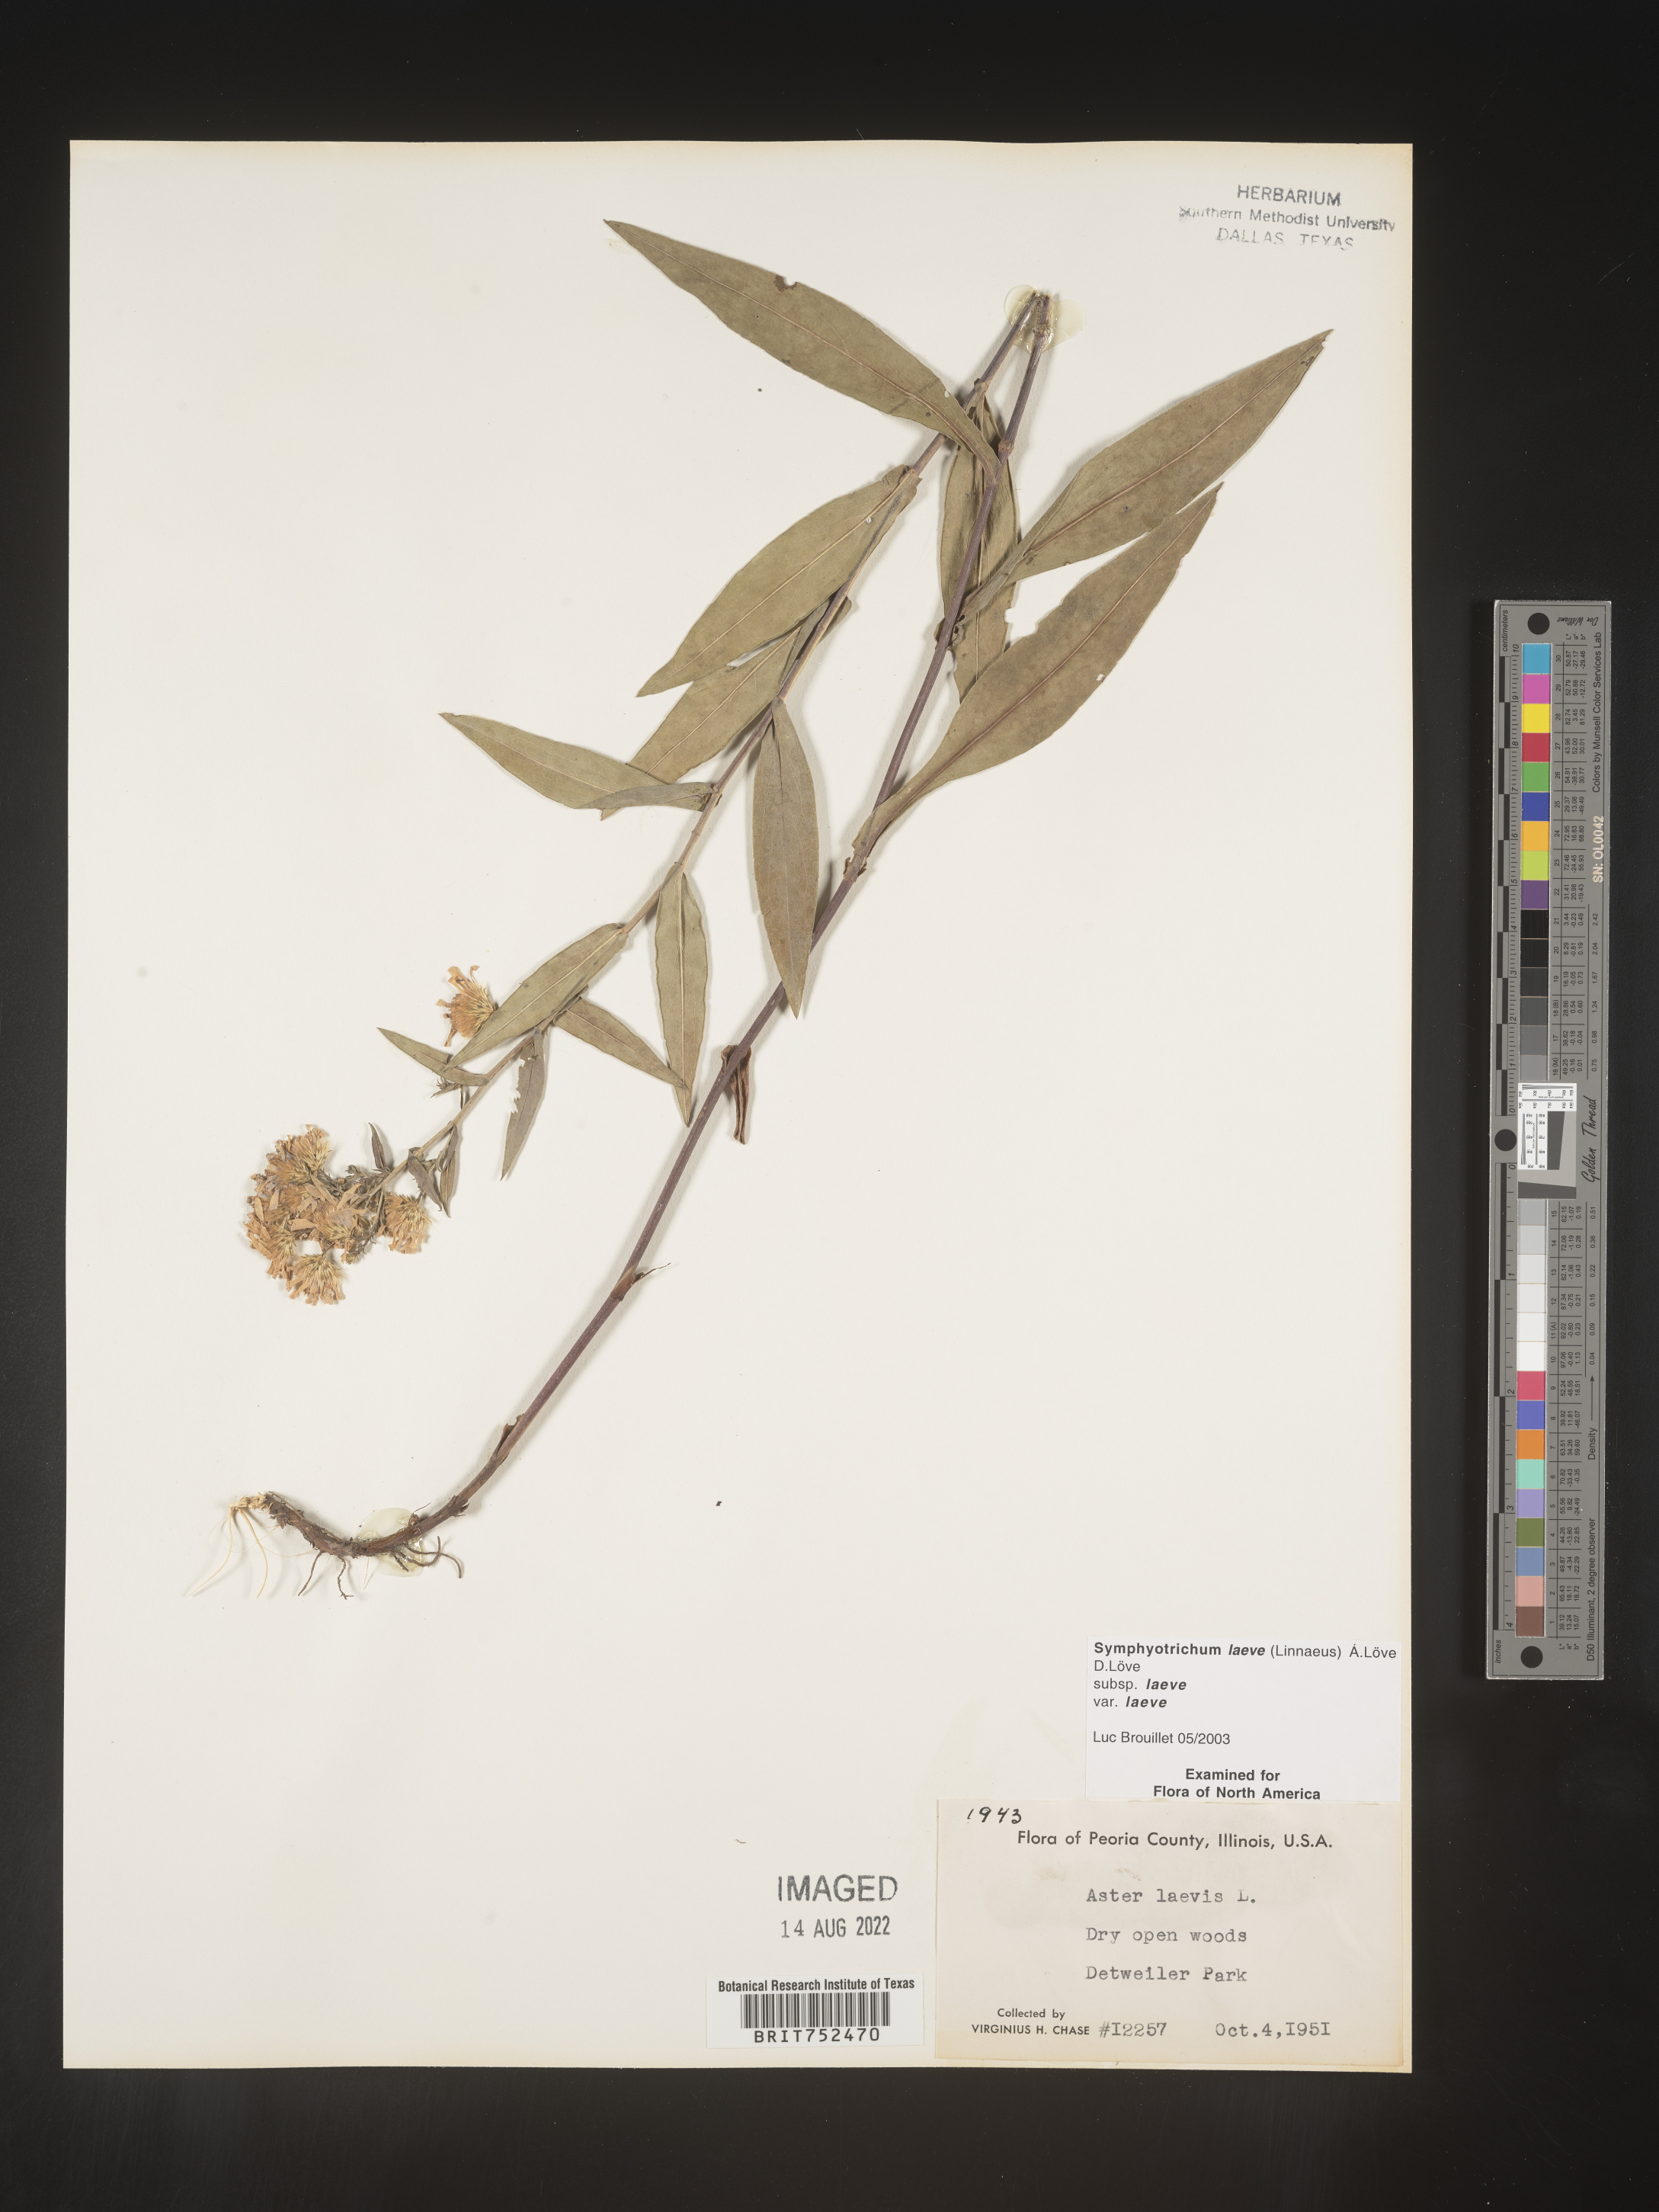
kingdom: Plantae
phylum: Tracheophyta
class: Magnoliopsida
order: Asterales
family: Asteraceae
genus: Symphyotrichum
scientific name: Symphyotrichum laeve
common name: Glaucous aster
